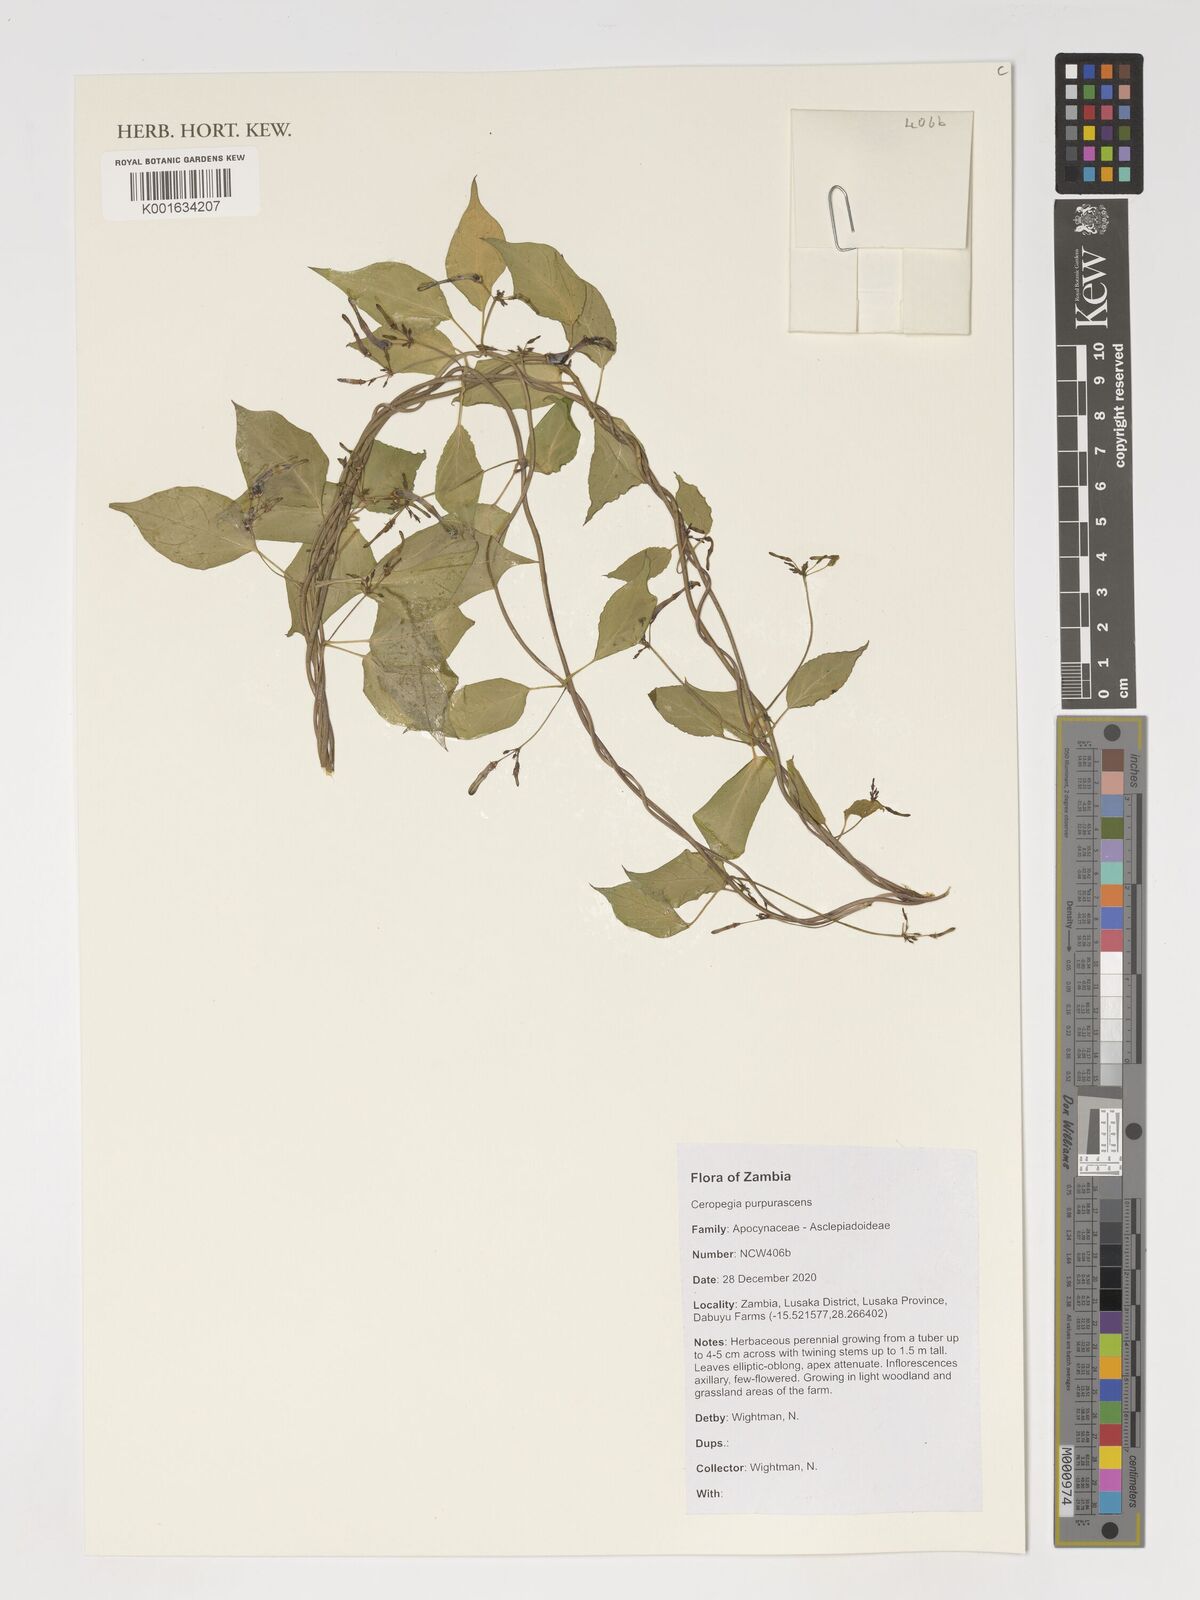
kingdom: Plantae
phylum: Tracheophyta
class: Magnoliopsida
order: Gentianales
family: Apocynaceae
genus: Ceropegia
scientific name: Ceropegia purpurascens
